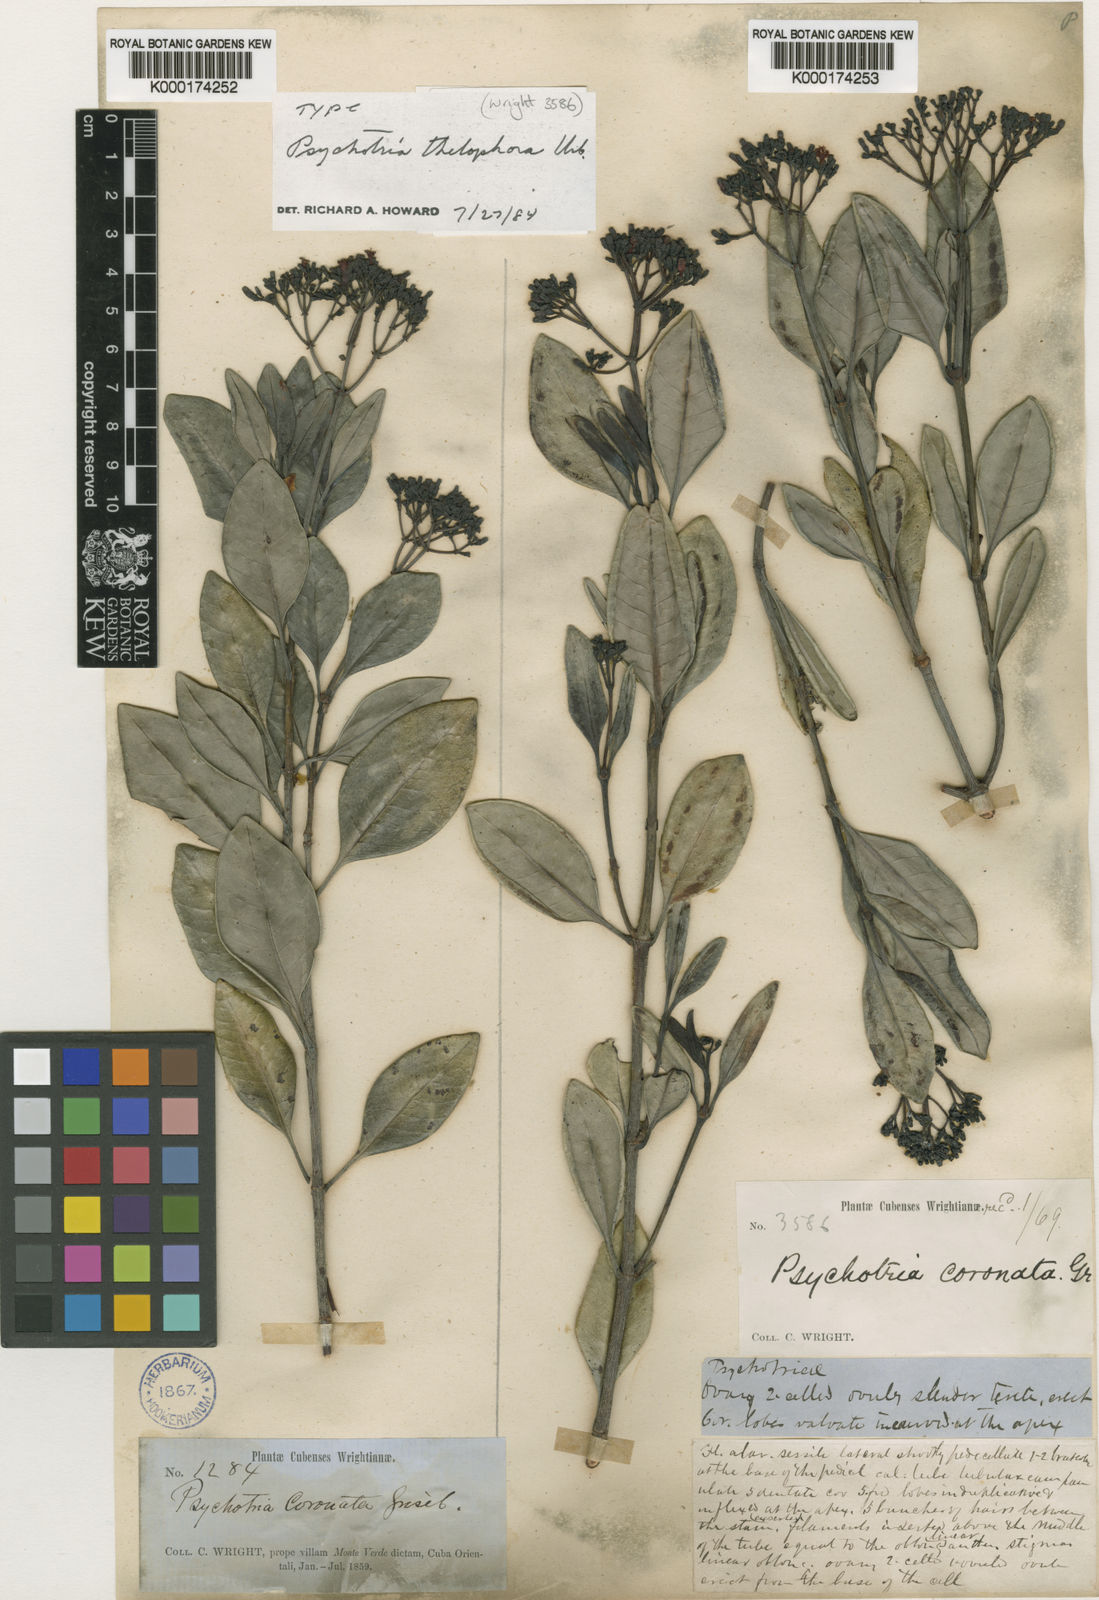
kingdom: Plantae
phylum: Tracheophyta
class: Magnoliopsida
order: Gentianales
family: Rubiaceae
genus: Psychotria
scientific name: Psychotria thelophora
